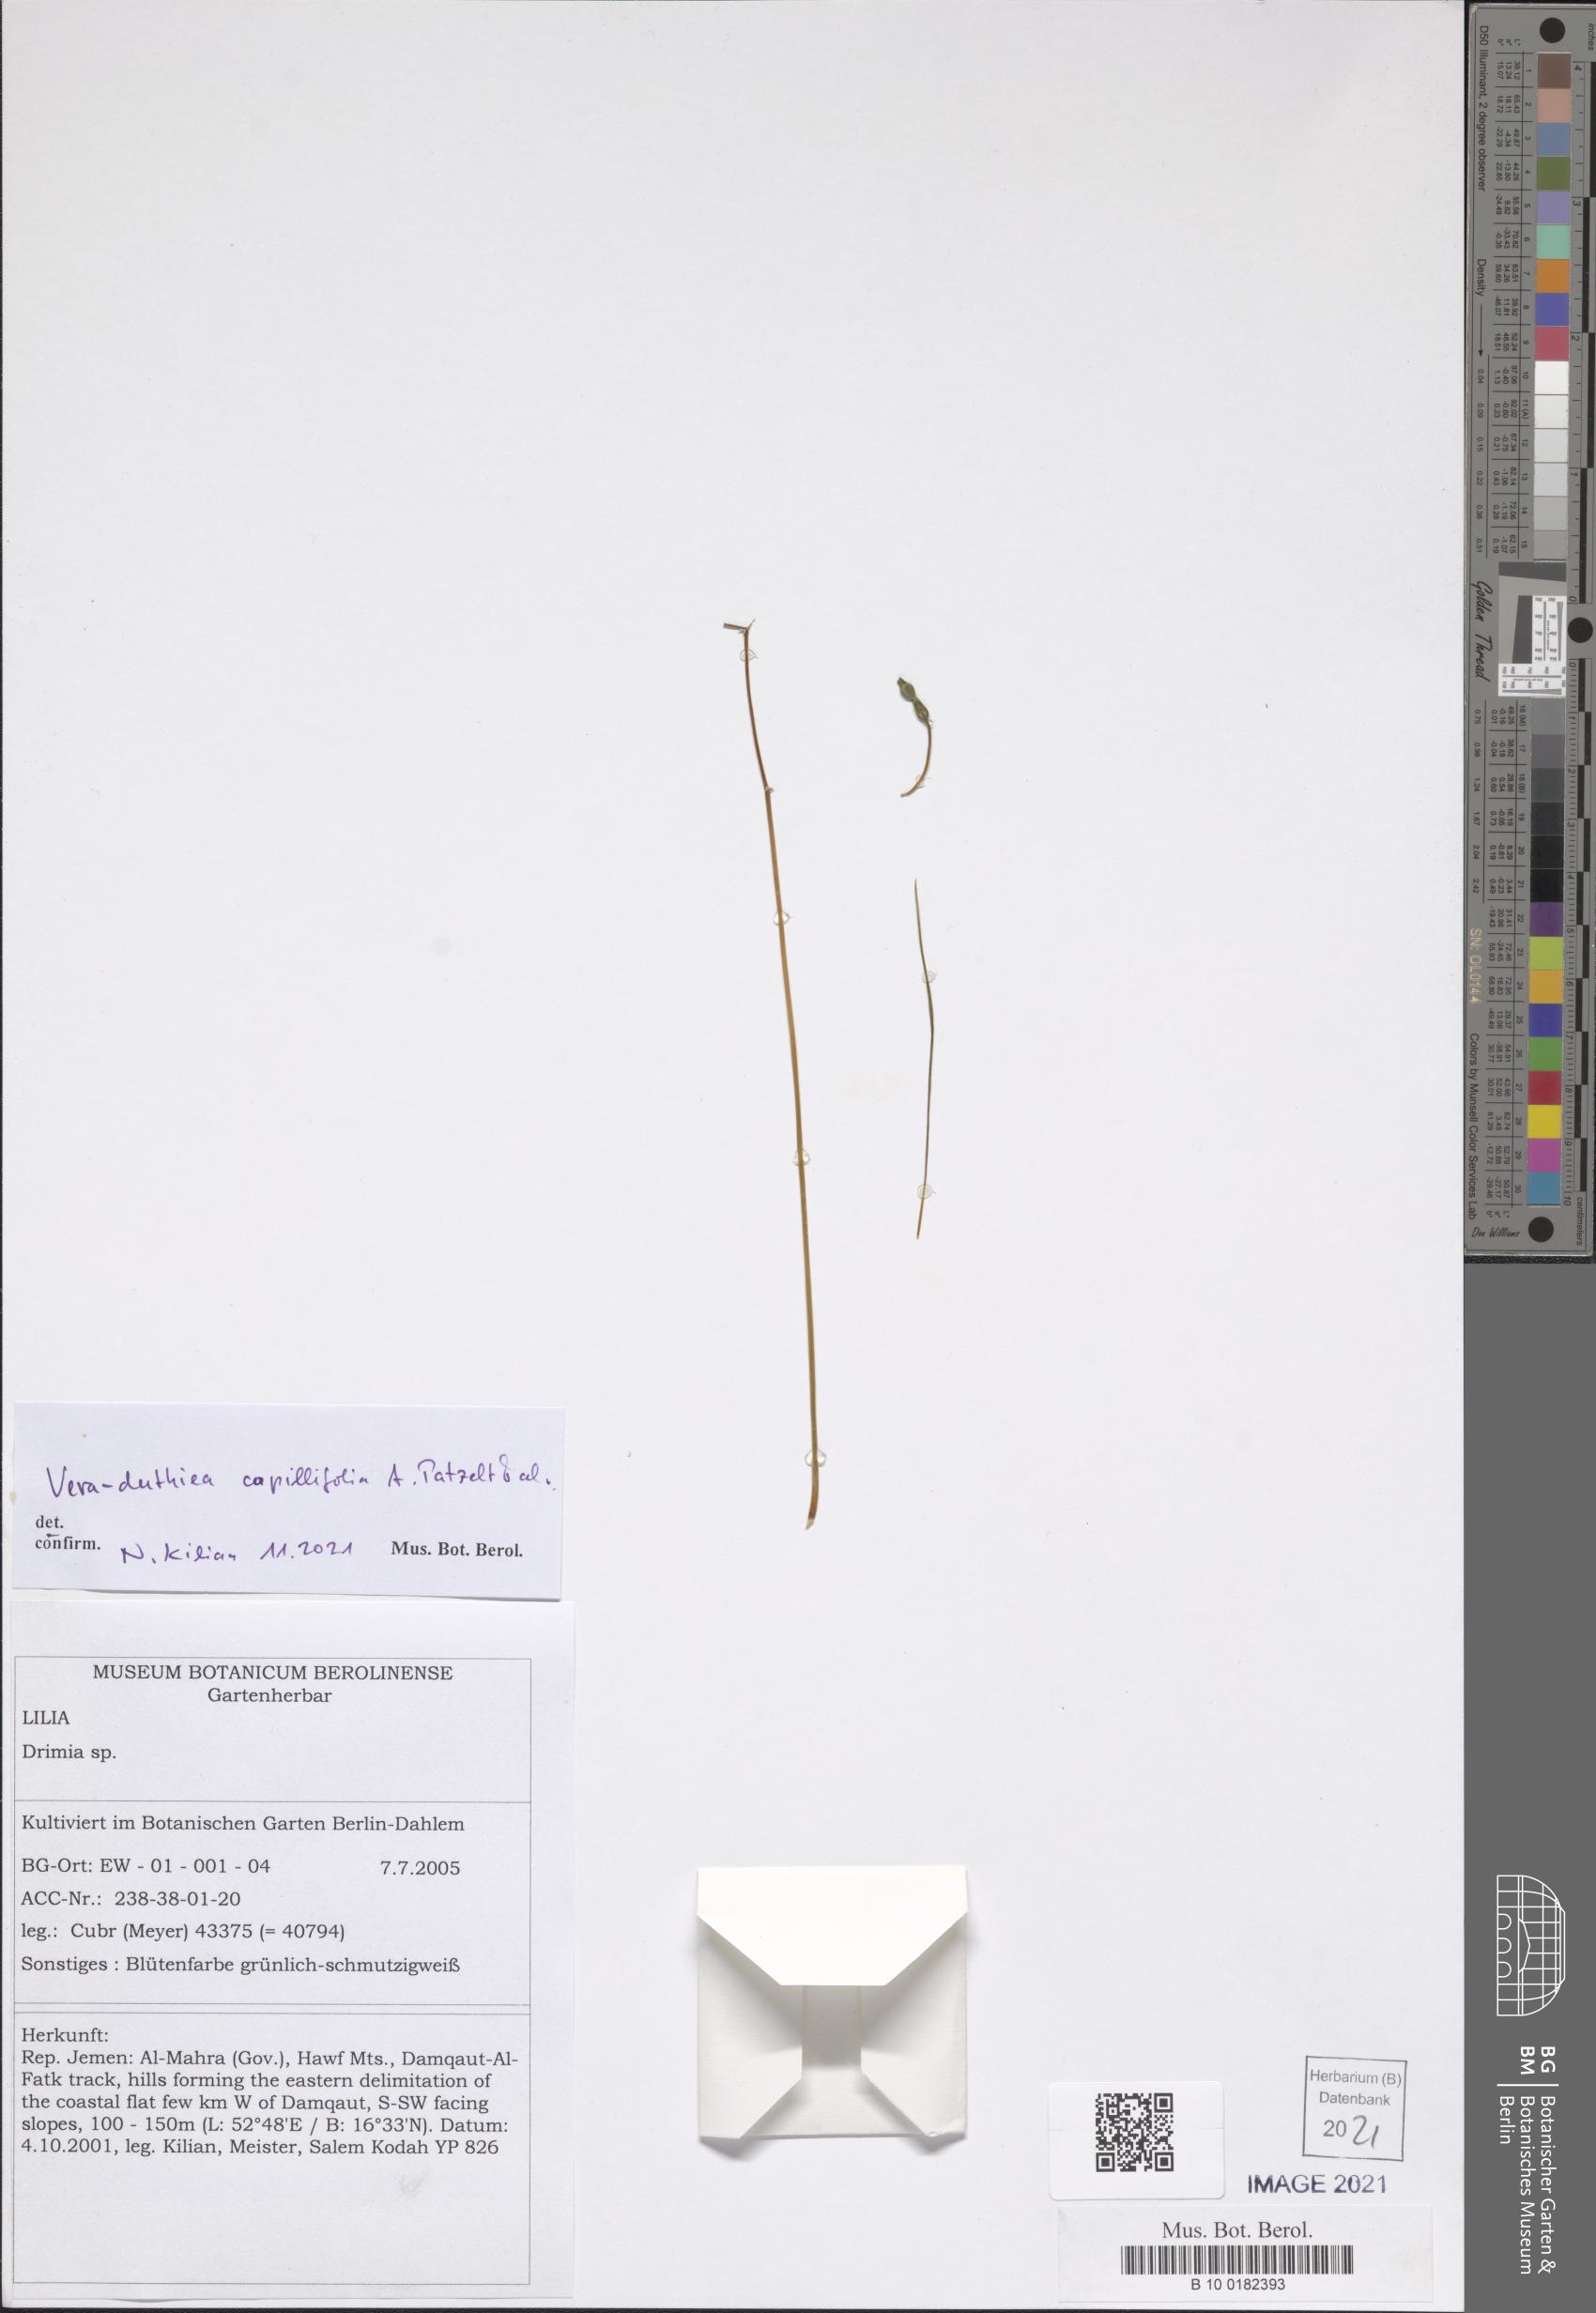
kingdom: Plantae
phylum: Tracheophyta
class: Liliopsida
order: Asparagales
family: Asparagaceae
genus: Drimia
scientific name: Drimia Vera-duthiea capillifolia
